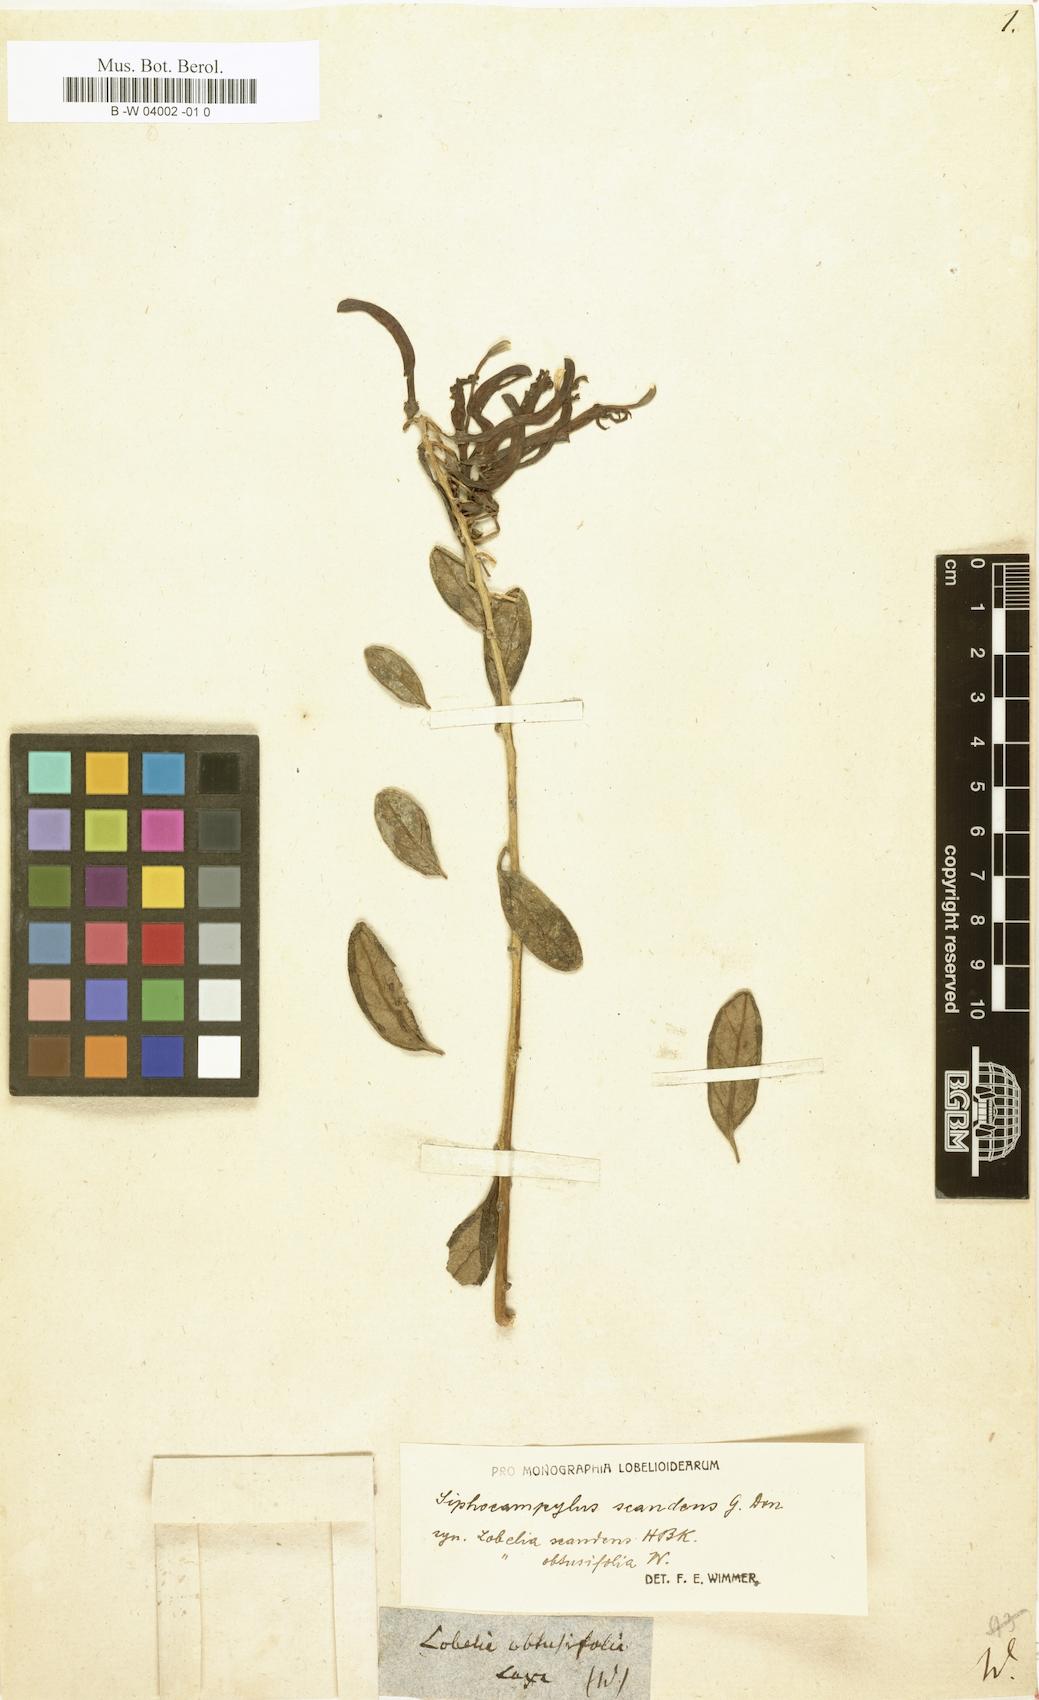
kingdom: Plantae
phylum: Tracheophyta
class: Magnoliopsida
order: Asterales
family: Campanulaceae
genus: Siphocampylus
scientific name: Siphocampylus scandens
